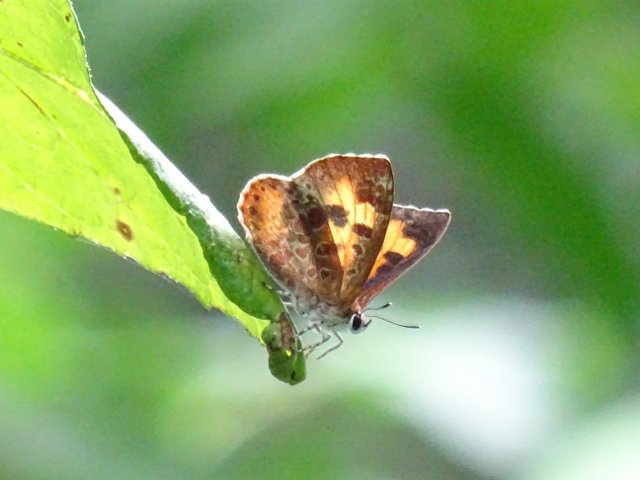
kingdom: Animalia
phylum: Arthropoda
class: Insecta
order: Lepidoptera
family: Lycaenidae
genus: Feniseca
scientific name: Feniseca tarquinius
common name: Harvester
